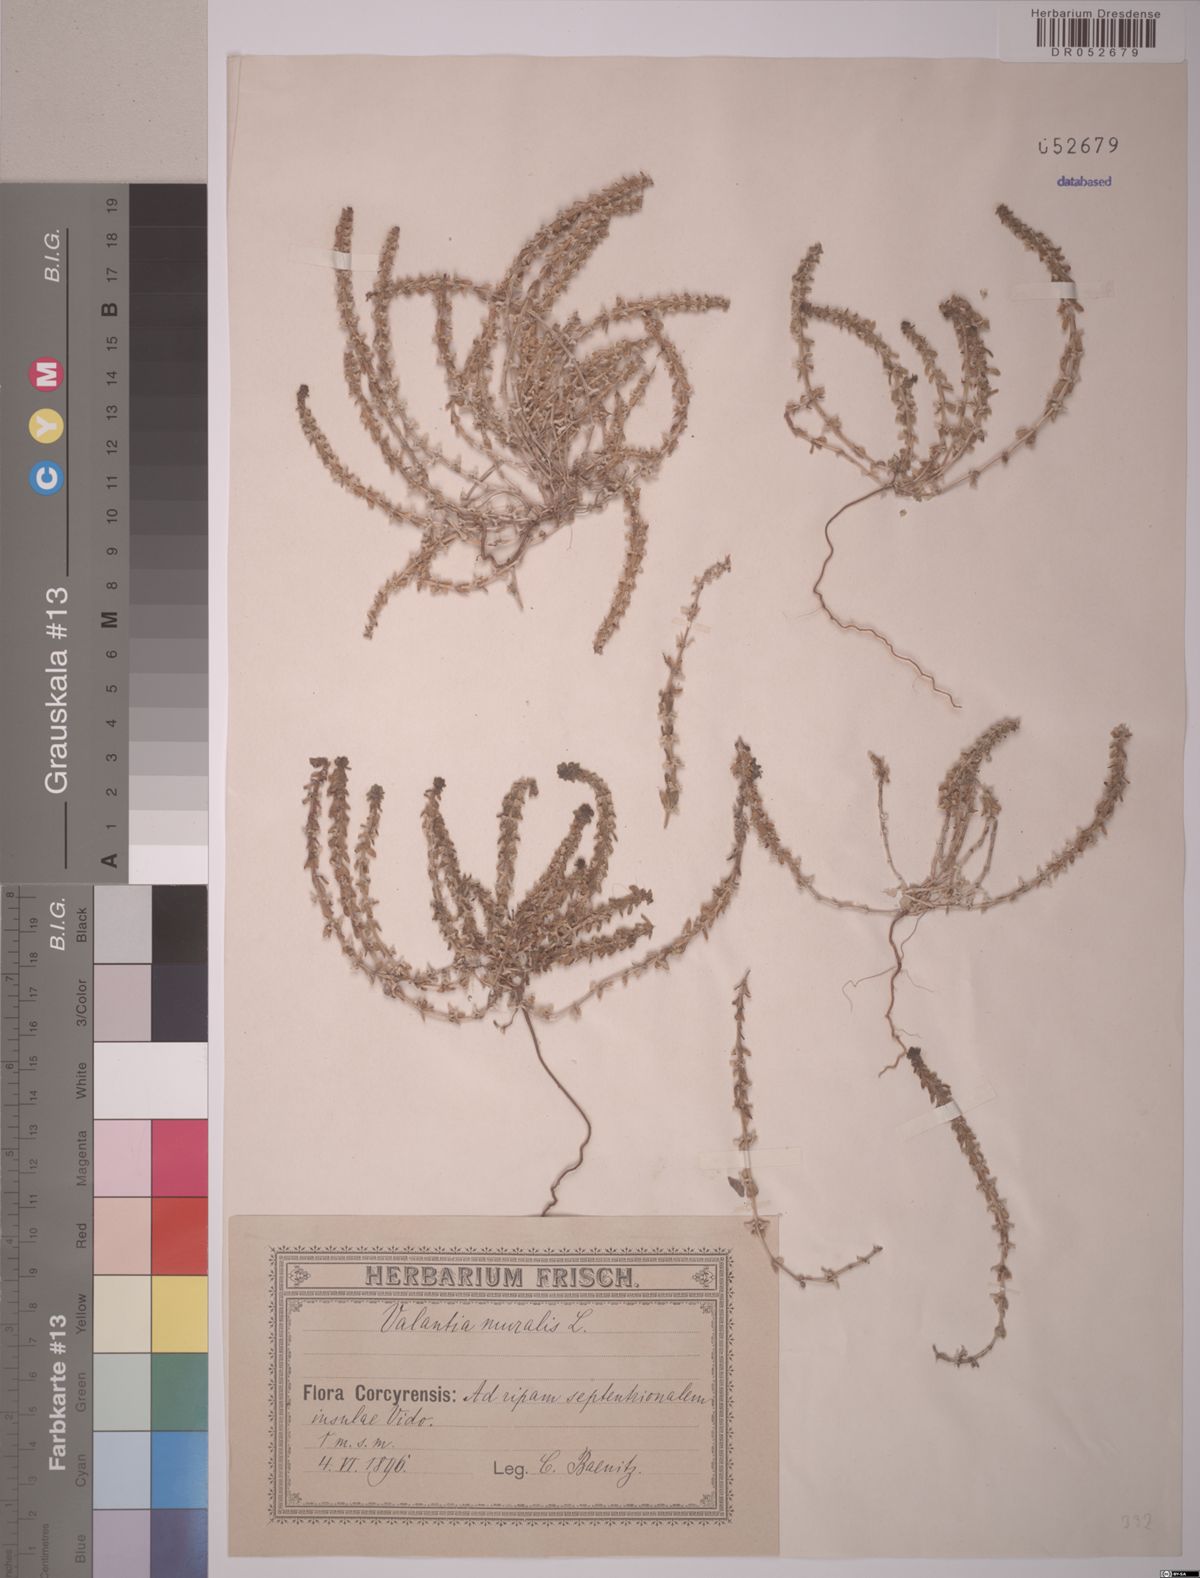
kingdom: Plantae
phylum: Tracheophyta
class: Magnoliopsida
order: Gentianales
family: Rubiaceae
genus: Valantia
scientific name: Valantia muralis
